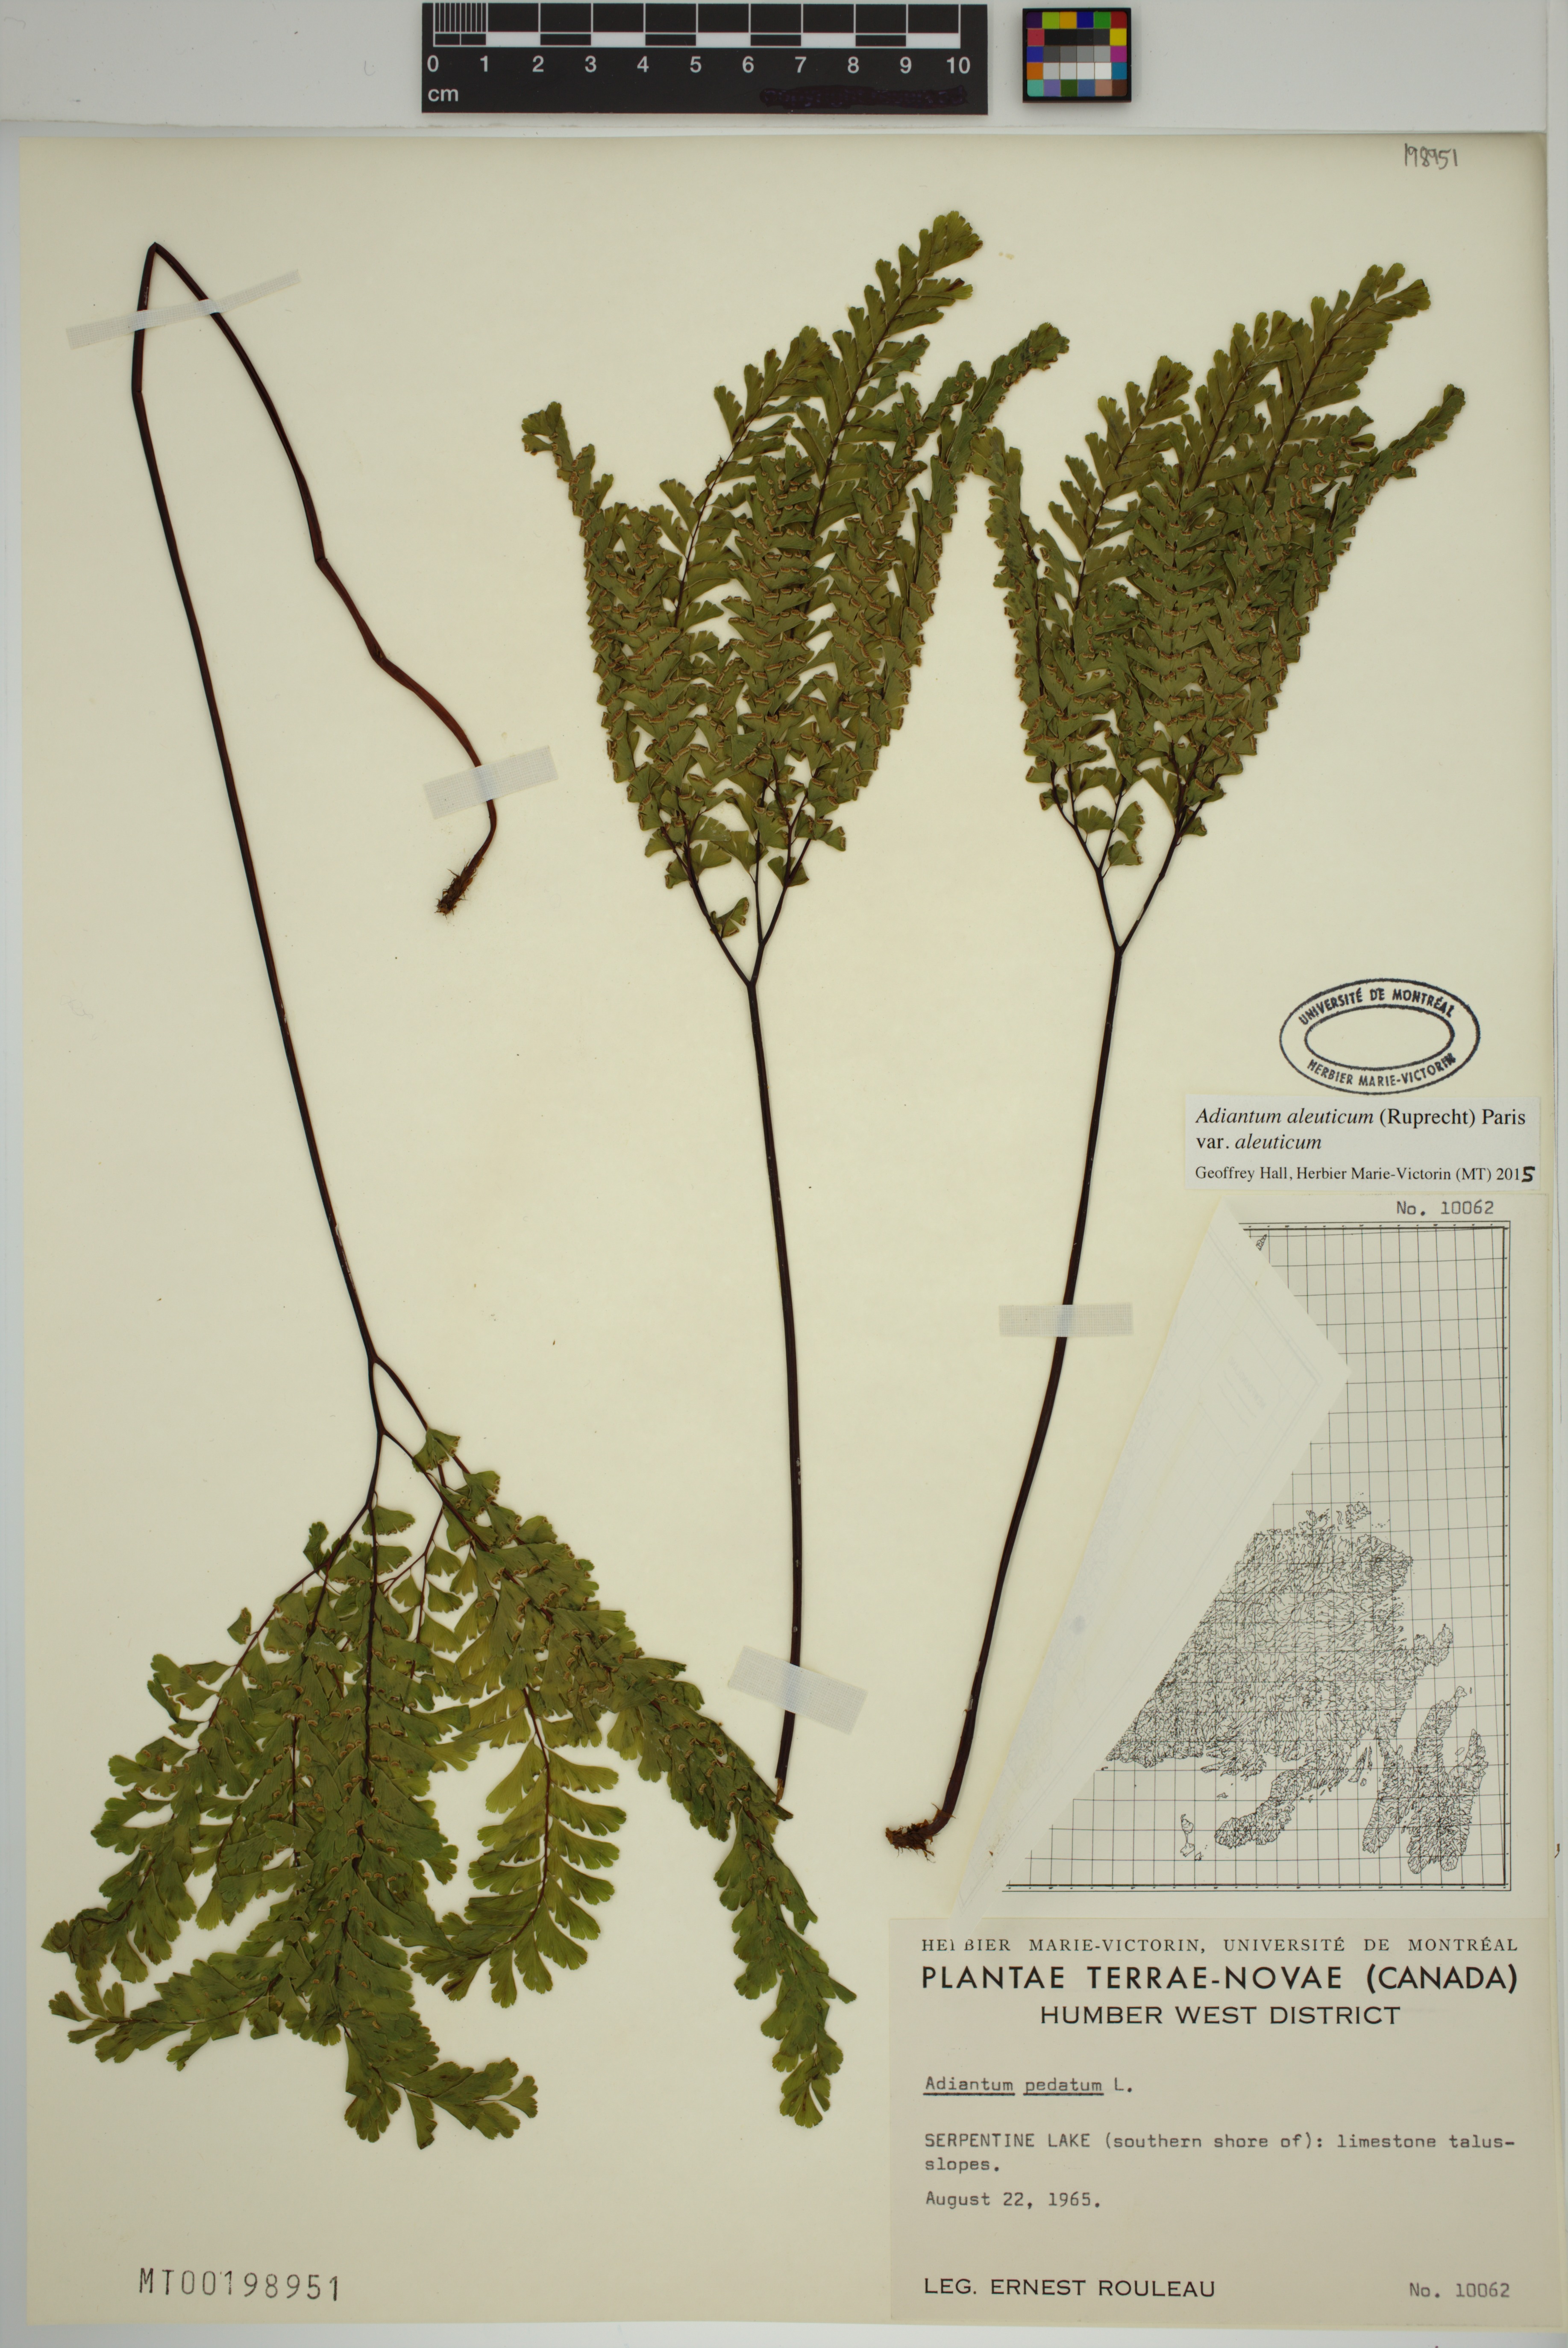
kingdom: Plantae
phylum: Tracheophyta
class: Polypodiopsida
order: Polypodiales
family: Pteridaceae
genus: Adiantum
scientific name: Adiantum aleuticum
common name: Aleutian maidenhair fern
